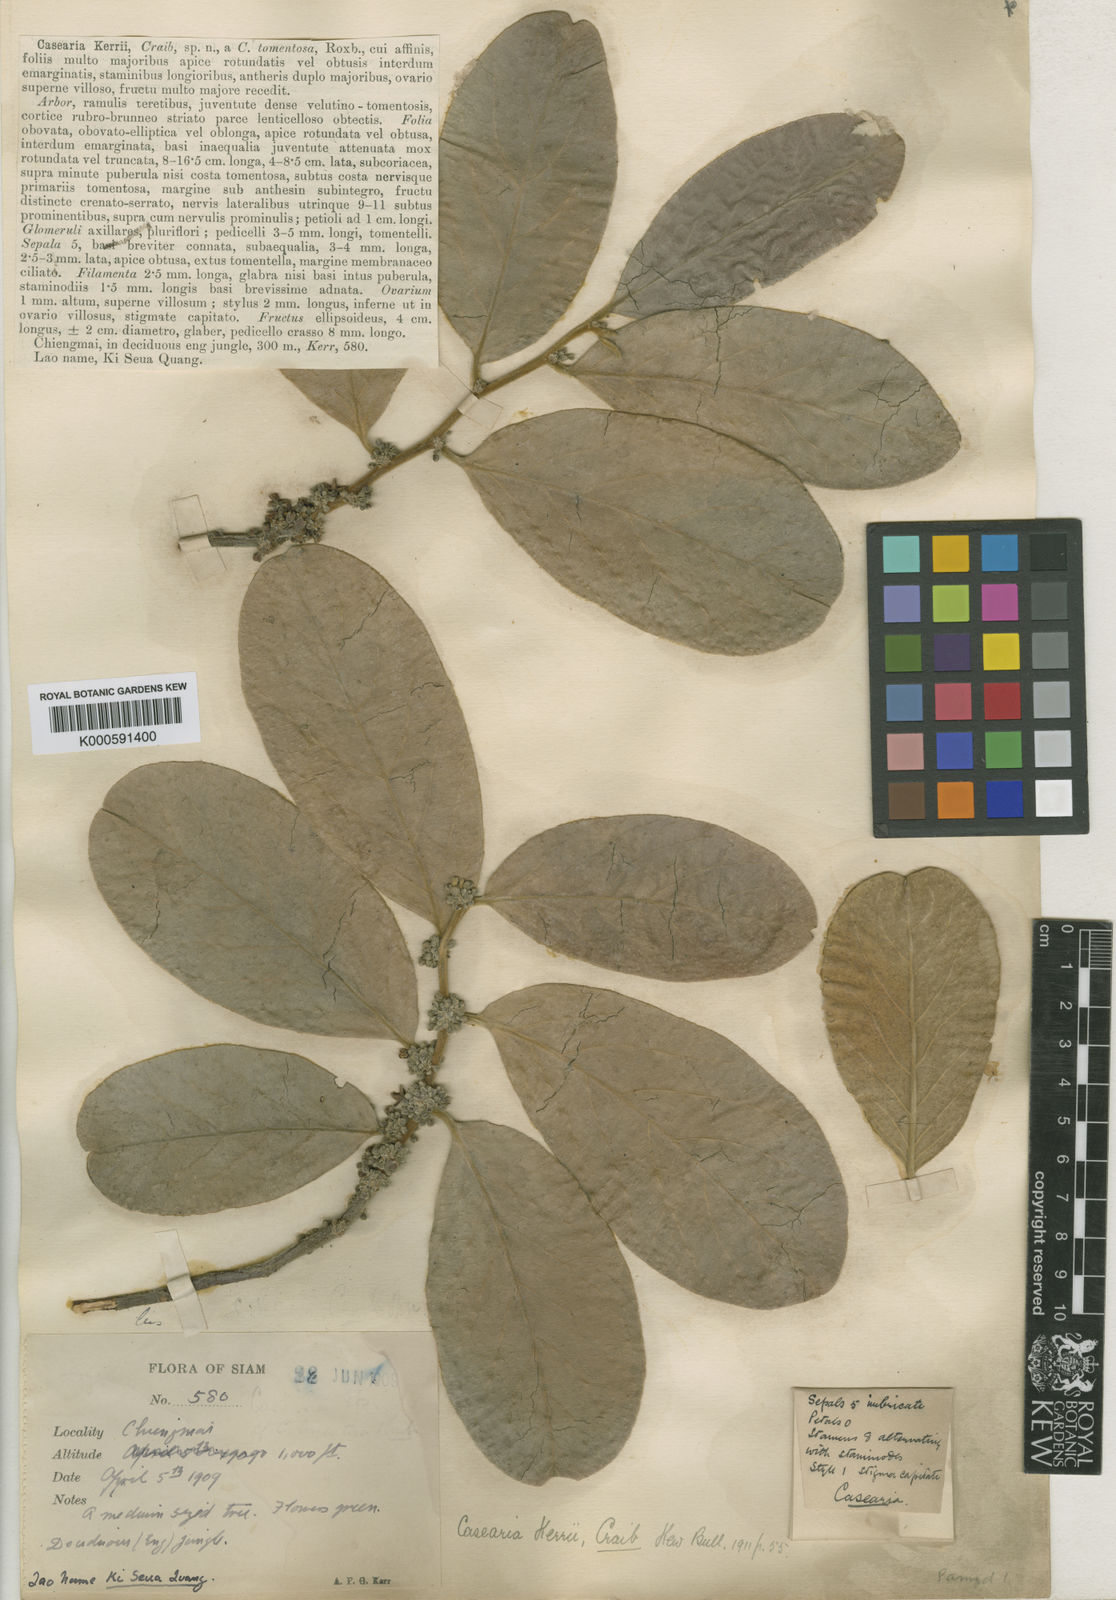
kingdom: Plantae
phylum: Tracheophyta
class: Magnoliopsida
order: Malpighiales
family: Salicaceae
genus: Casearia
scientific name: Casearia grewiifolia
